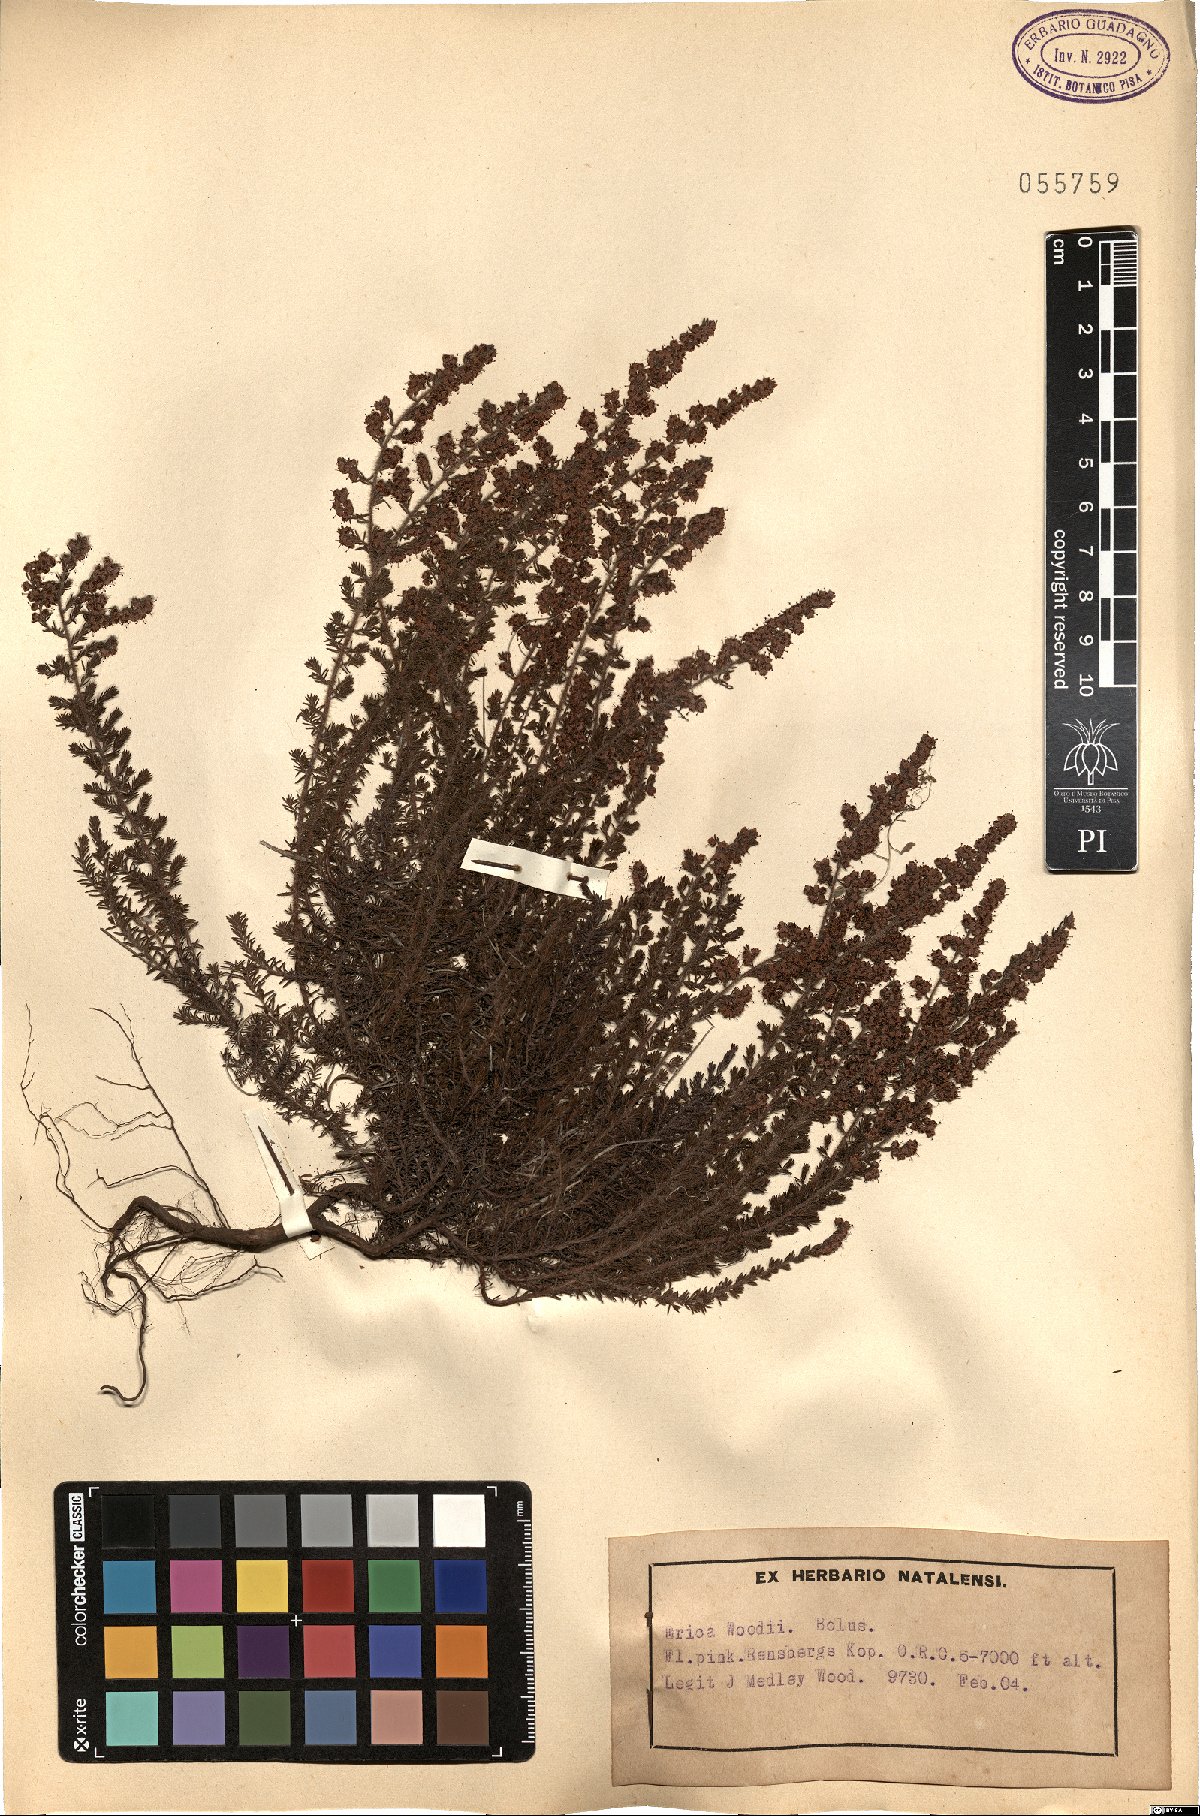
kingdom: Plantae
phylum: Tracheophyta
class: Magnoliopsida
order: Ericales
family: Ericaceae
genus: Erica
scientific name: Erica woodii
